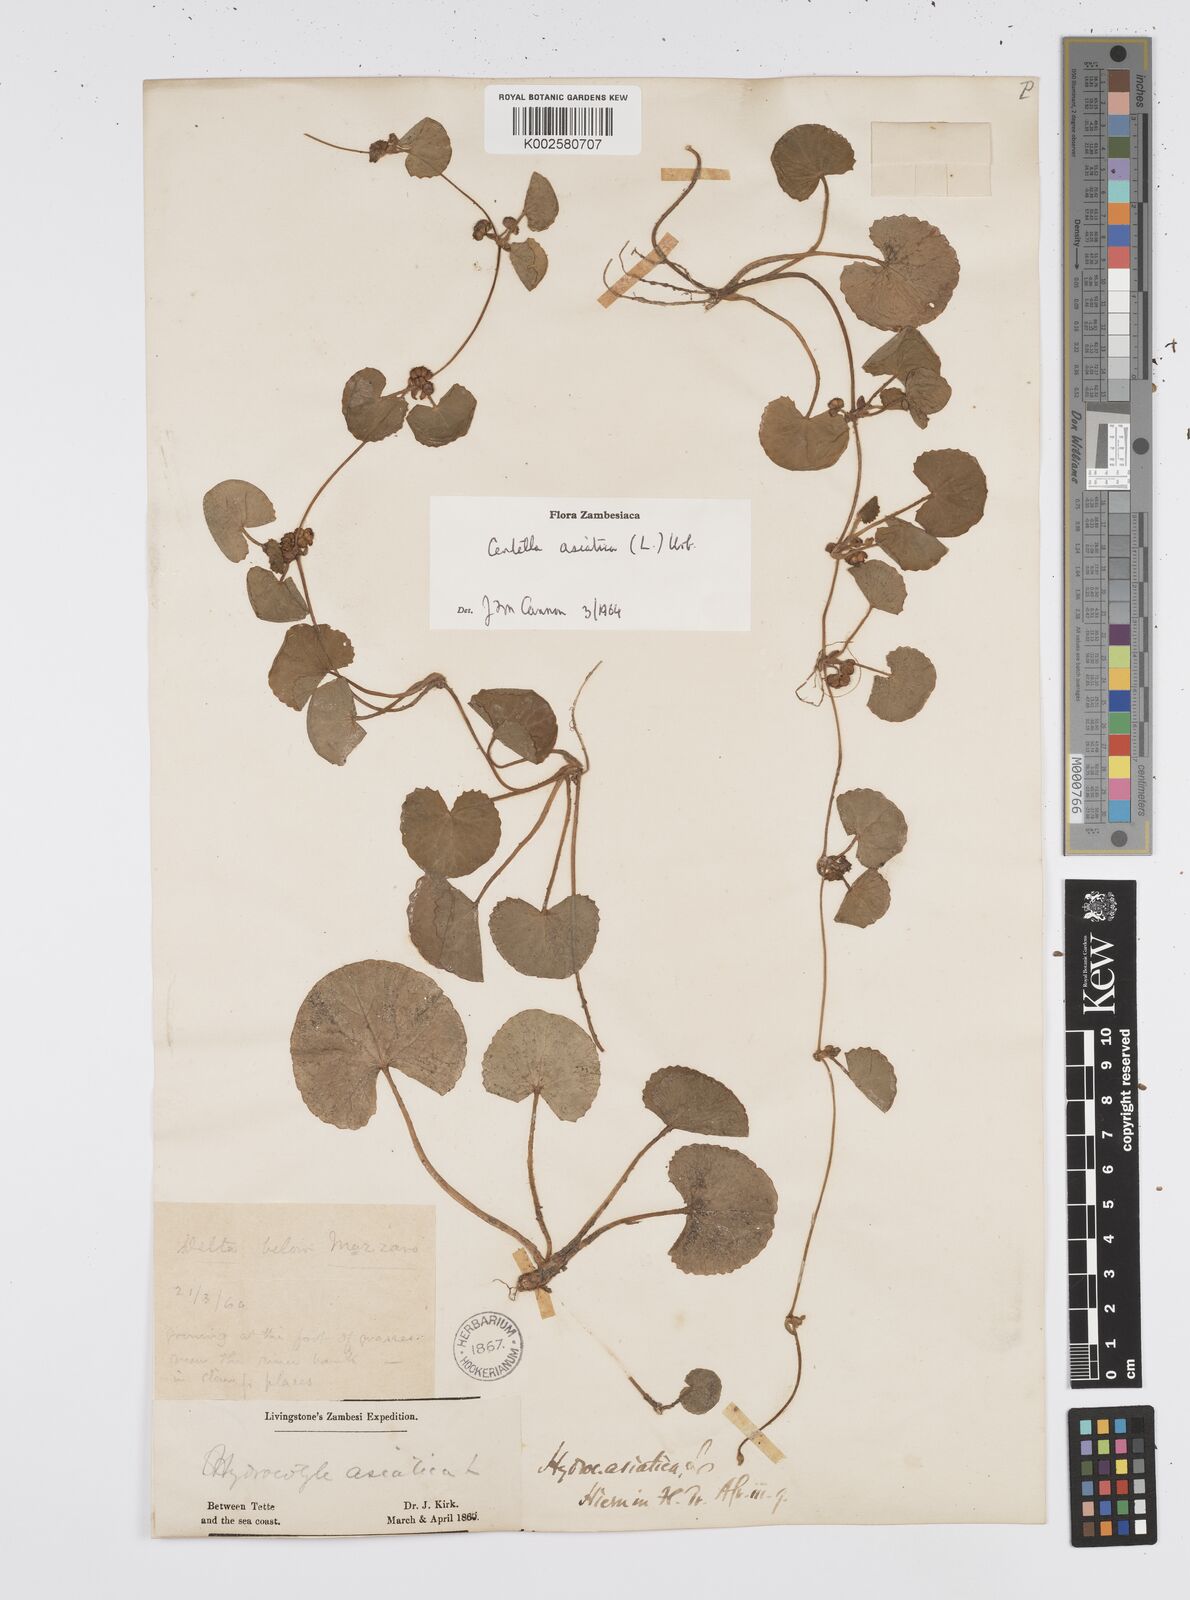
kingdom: Plantae
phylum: Tracheophyta
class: Magnoliopsida
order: Apiales
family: Apiaceae
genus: Centella
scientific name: Centella asiatica
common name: Spadeleaf
